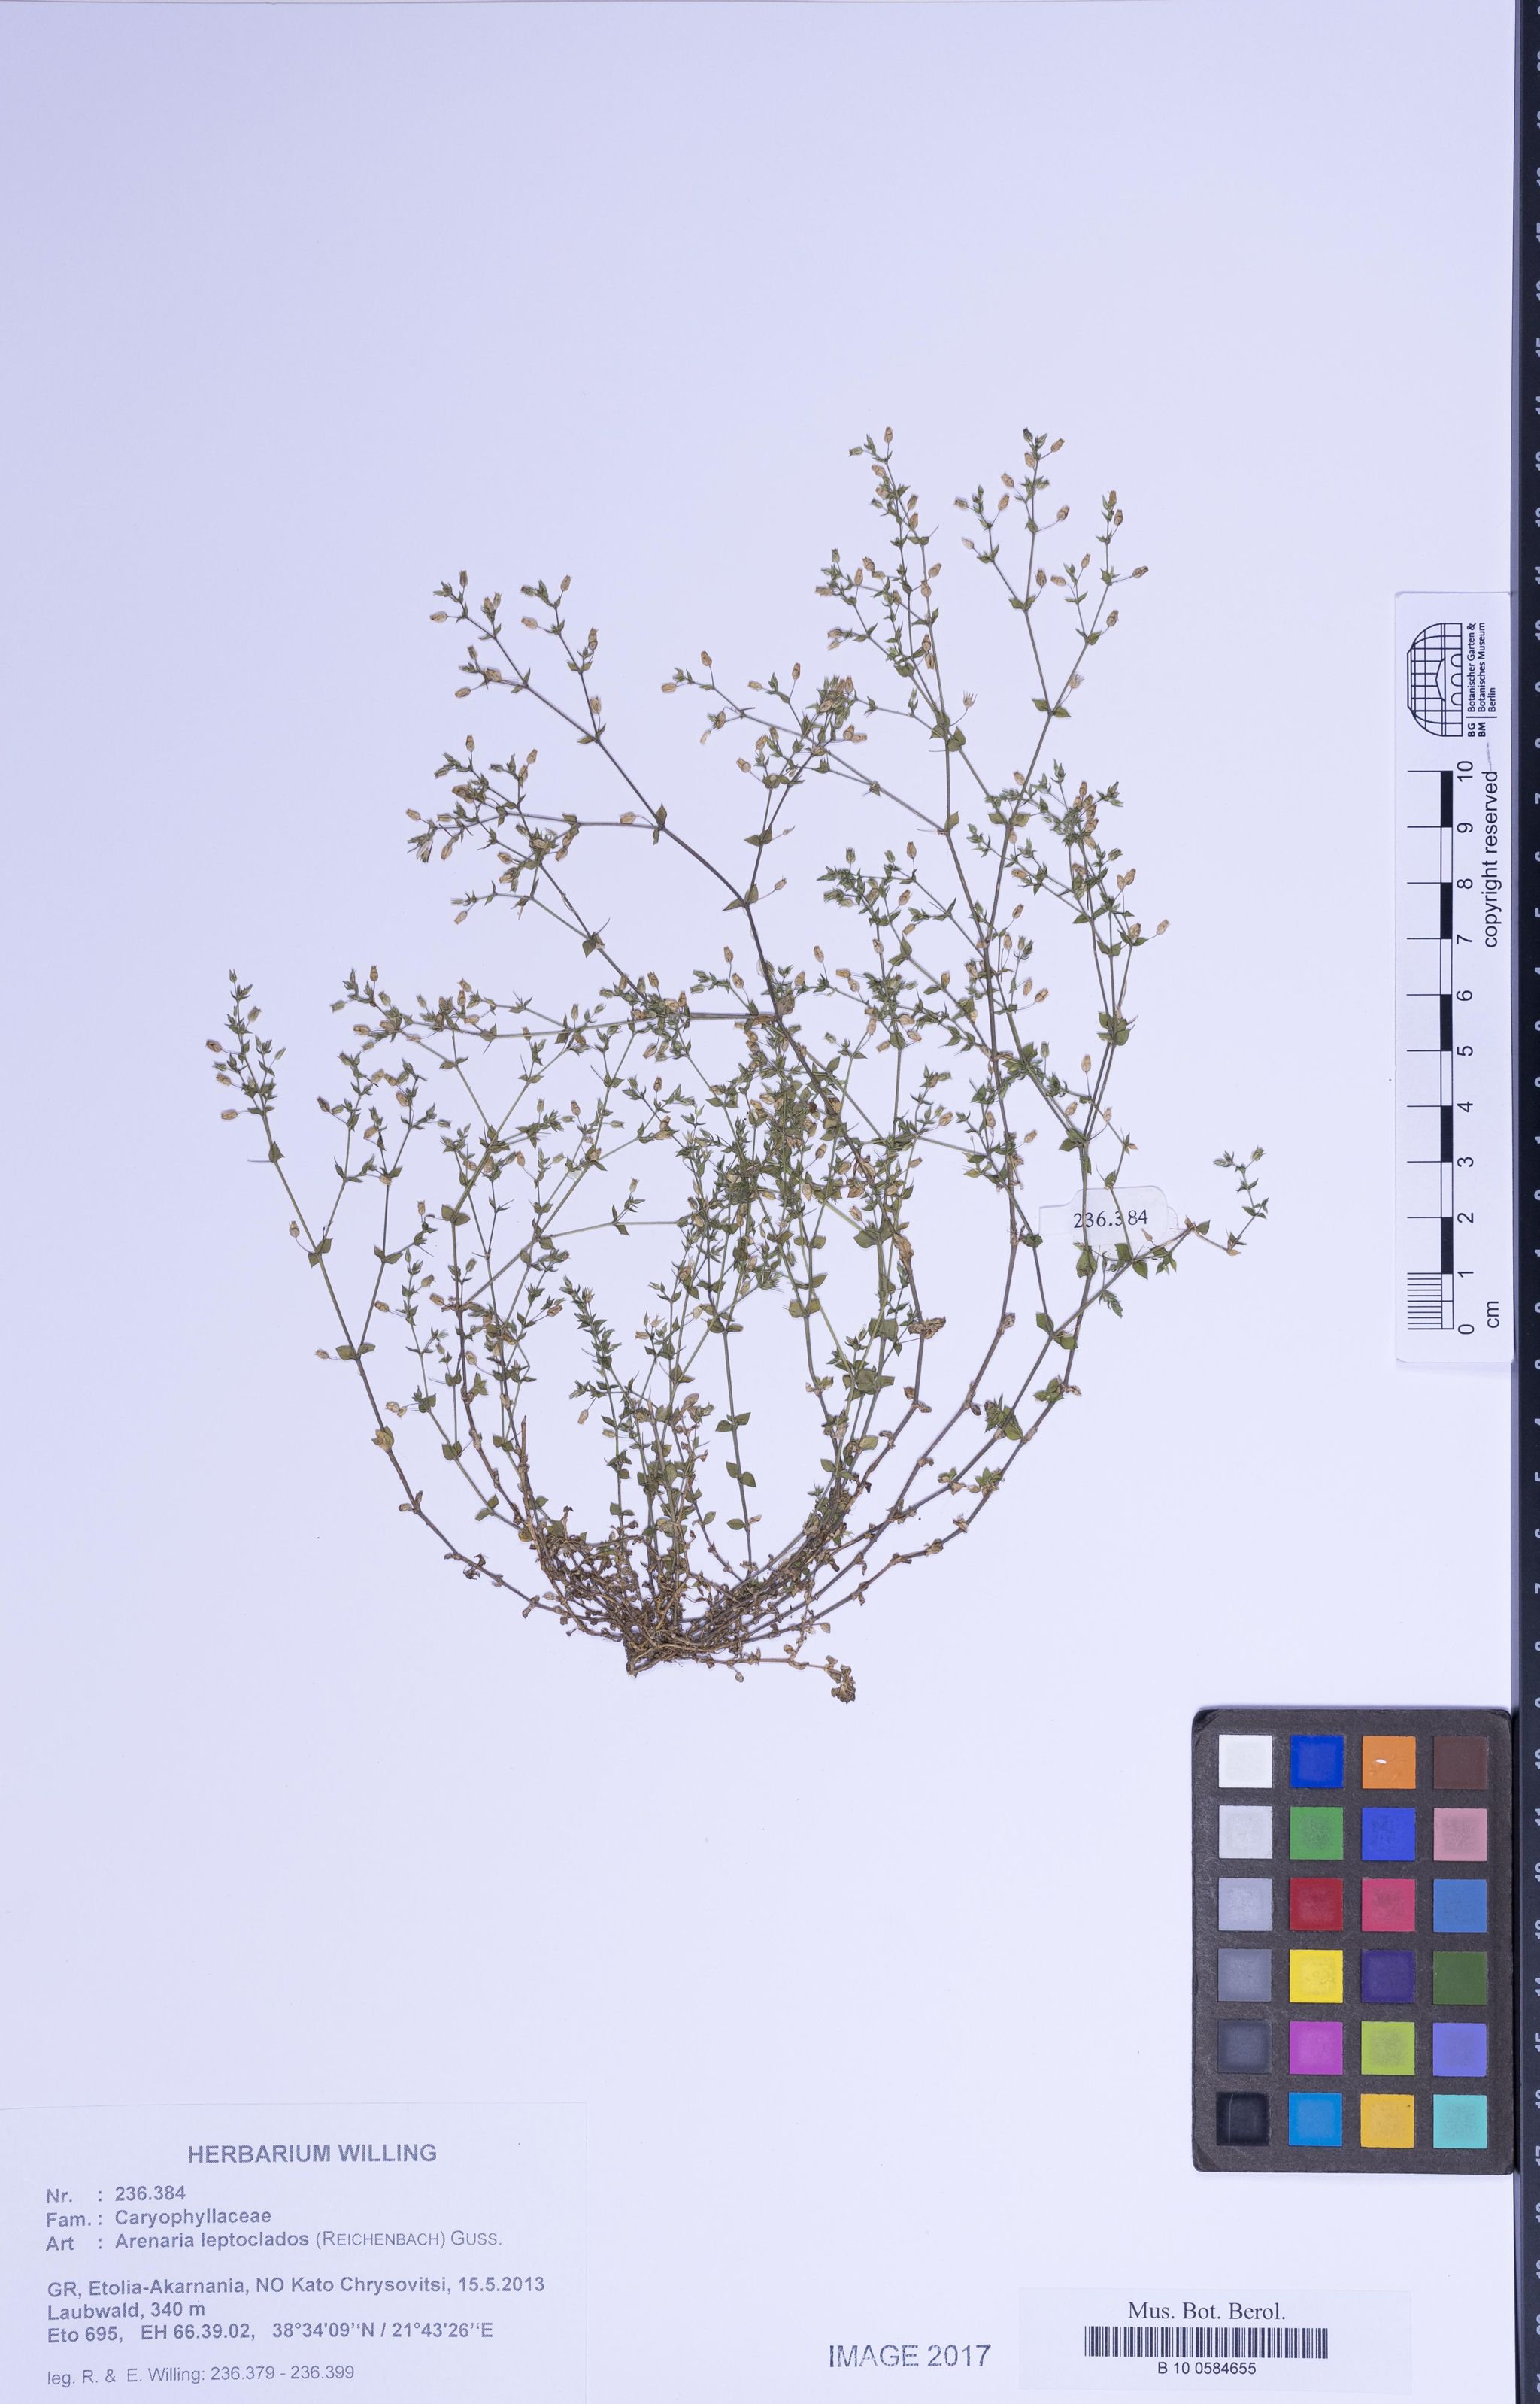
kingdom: Plantae
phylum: Tracheophyta
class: Magnoliopsida
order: Caryophyllales
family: Caryophyllaceae
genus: Arenaria
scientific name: Arenaria leptoclados
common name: Thyme-leaved sandwort
